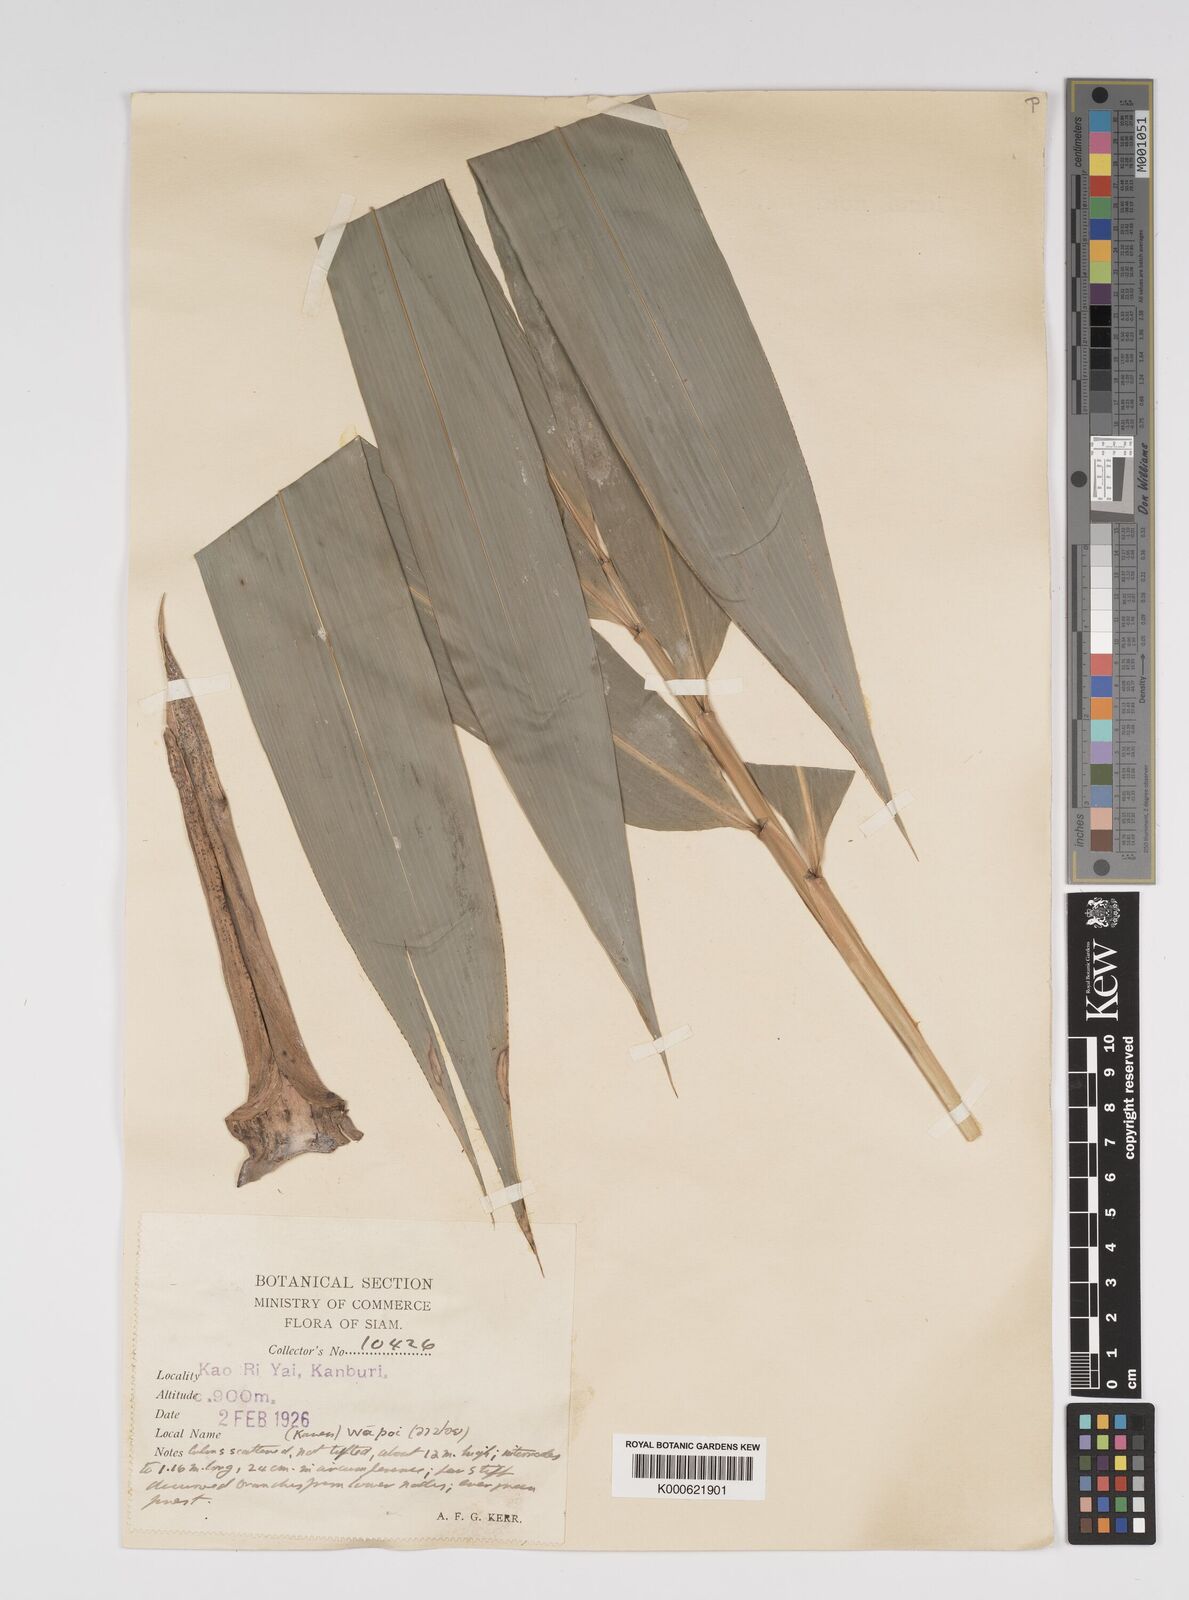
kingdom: Plantae
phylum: Tracheophyta
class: Liliopsida
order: Poales
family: Poaceae
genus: Bambusa
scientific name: Bambusa
